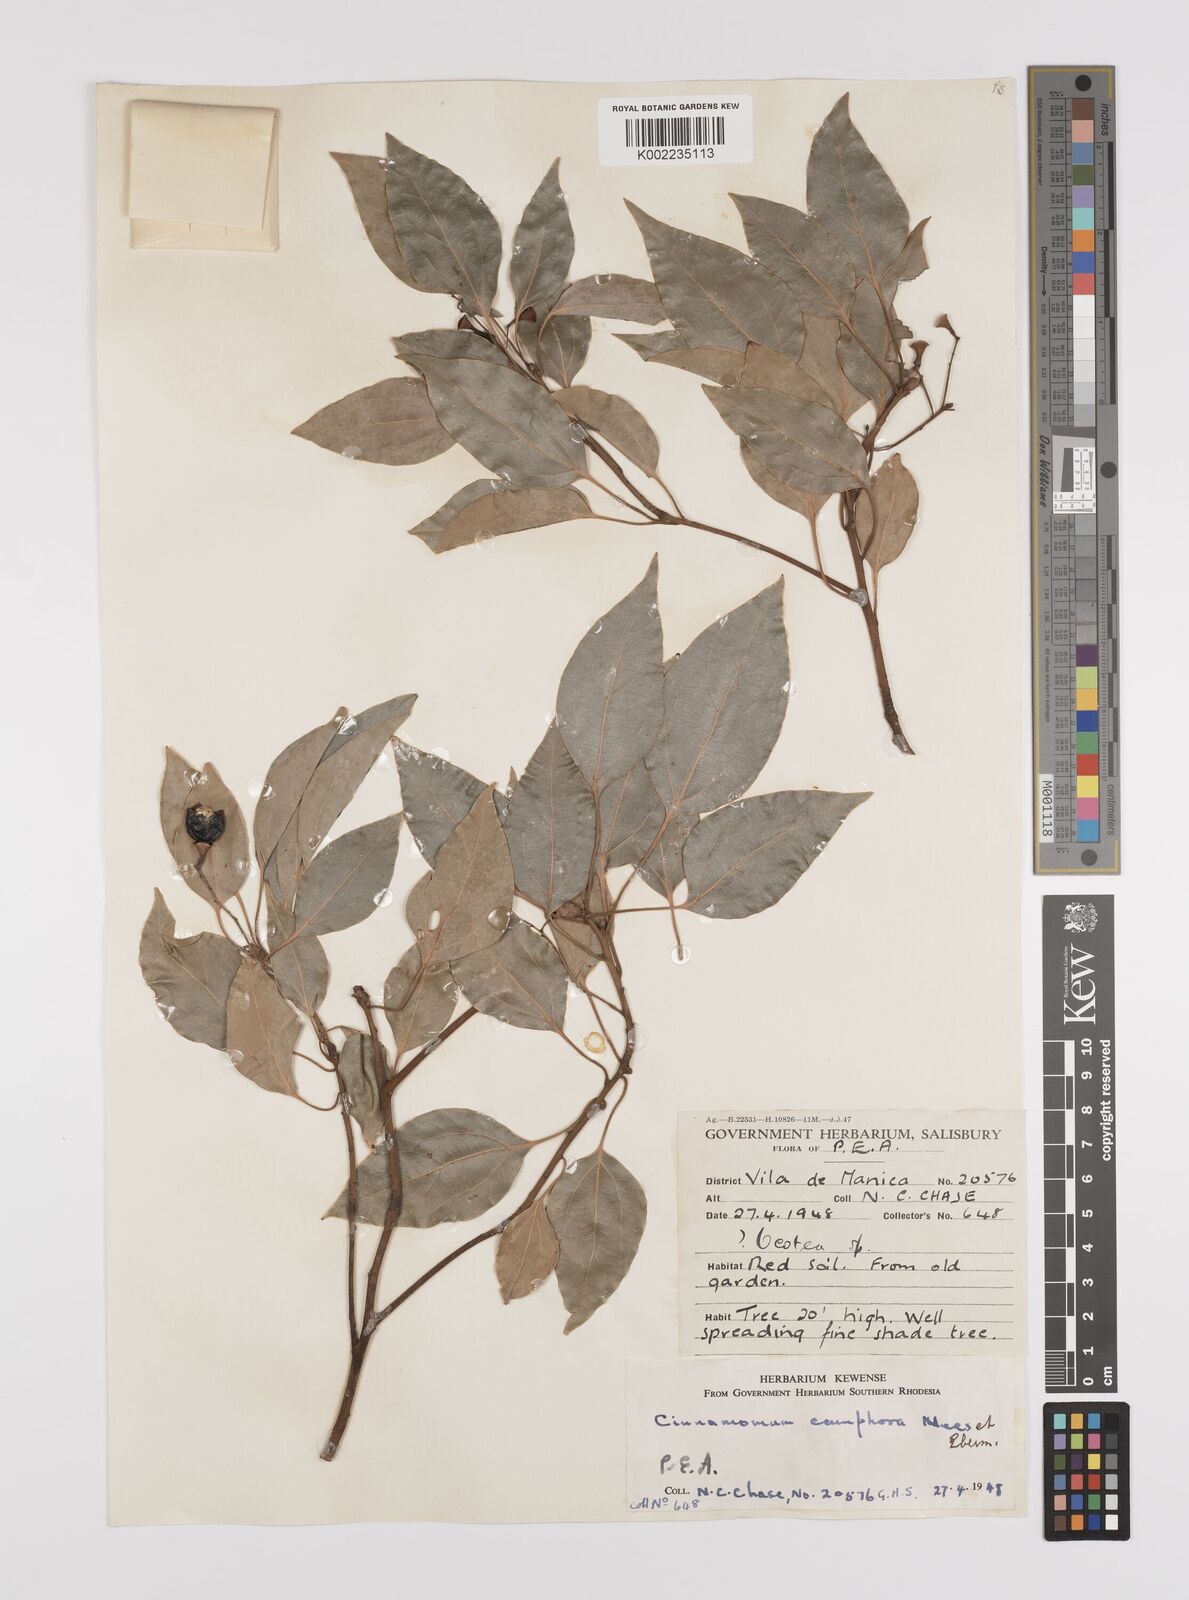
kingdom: Plantae
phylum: Tracheophyta
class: Magnoliopsida
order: Laurales
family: Lauraceae
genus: Cinnamomum
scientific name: Cinnamomum camphora
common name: Camphortree
